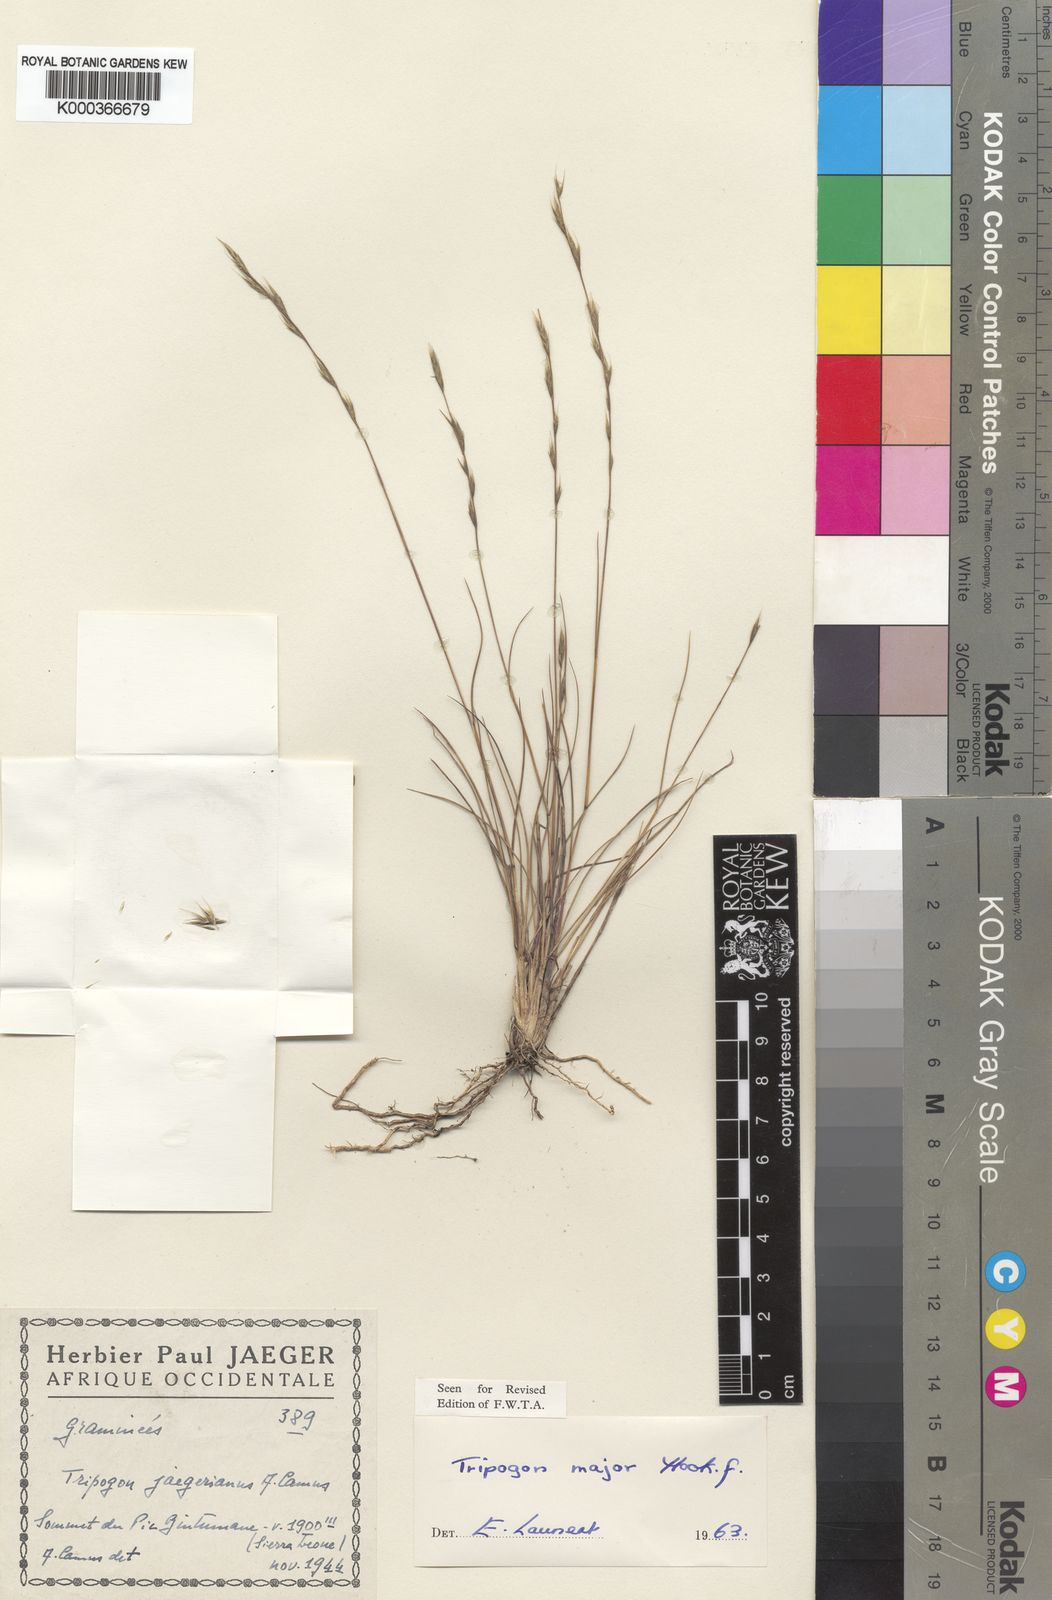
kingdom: Plantae
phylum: Tracheophyta
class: Liliopsida
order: Poales
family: Poaceae
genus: Tripogon
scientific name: Tripogon major
